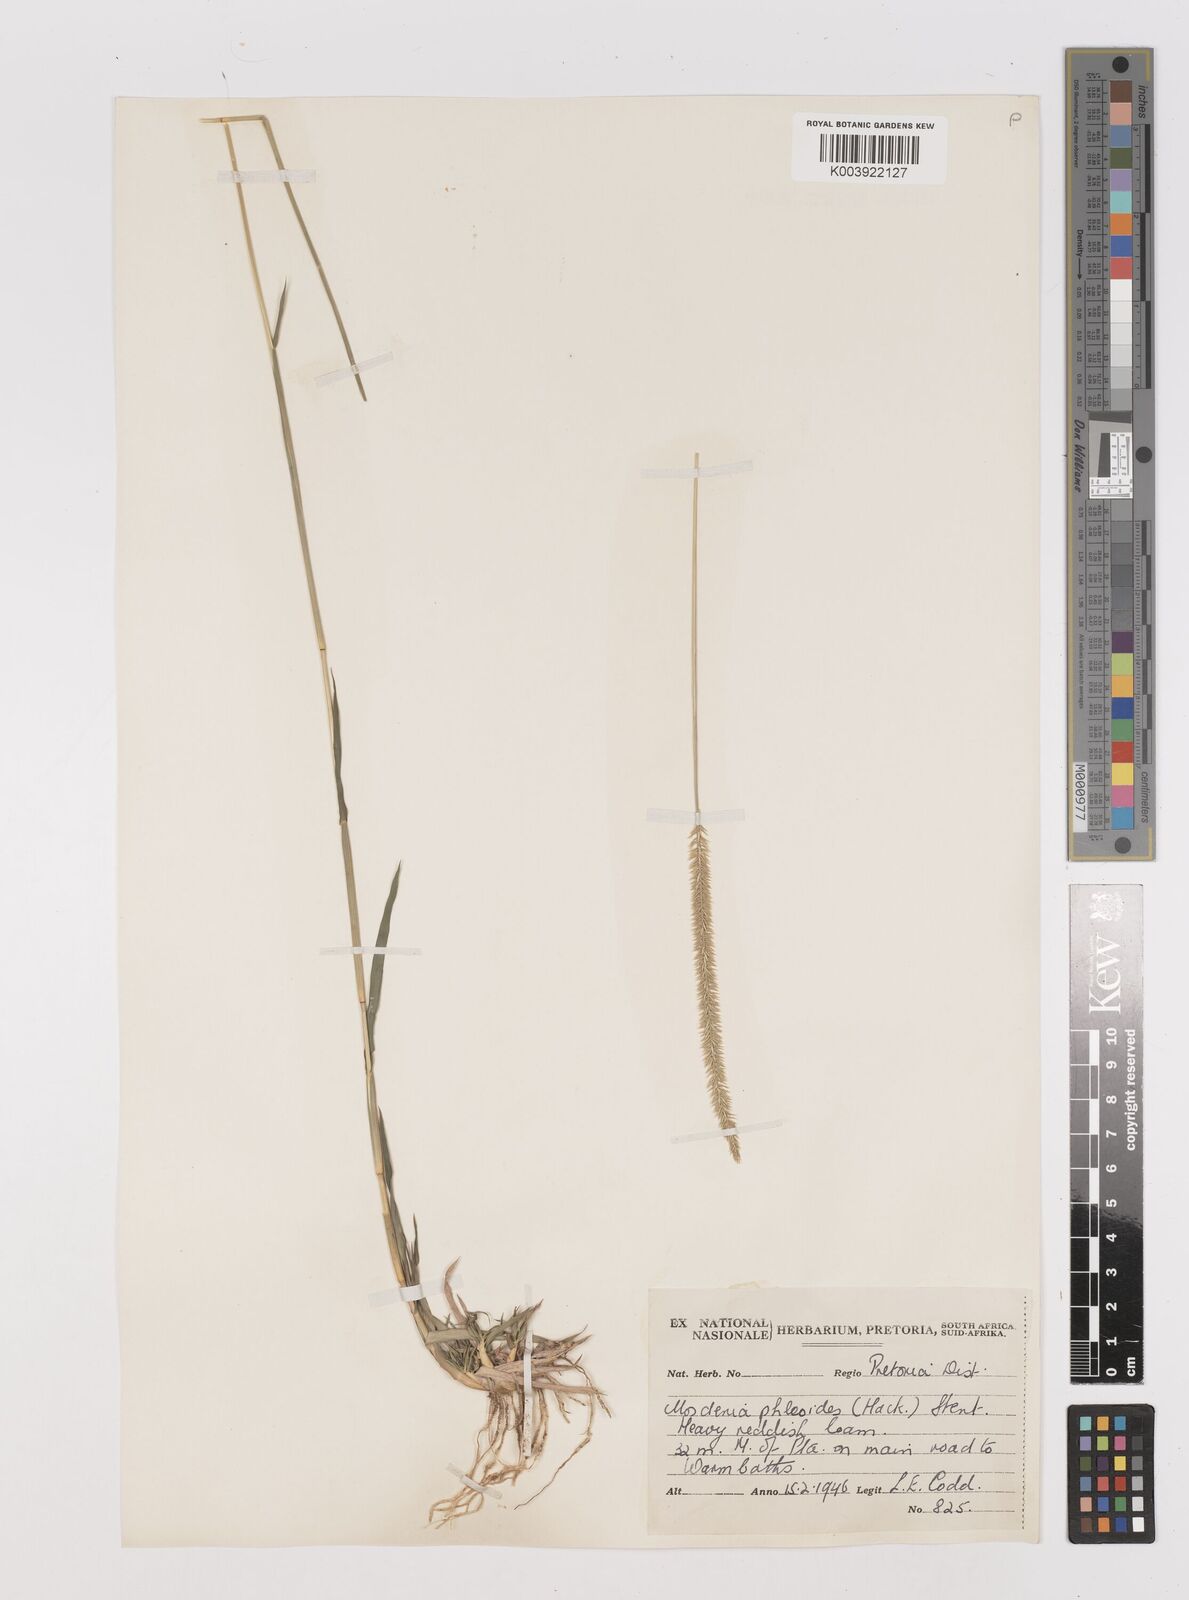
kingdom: Plantae
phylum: Tracheophyta
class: Liliopsida
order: Poales
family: Poaceae
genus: Mosdenia
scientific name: Mosdenia leptostachys
